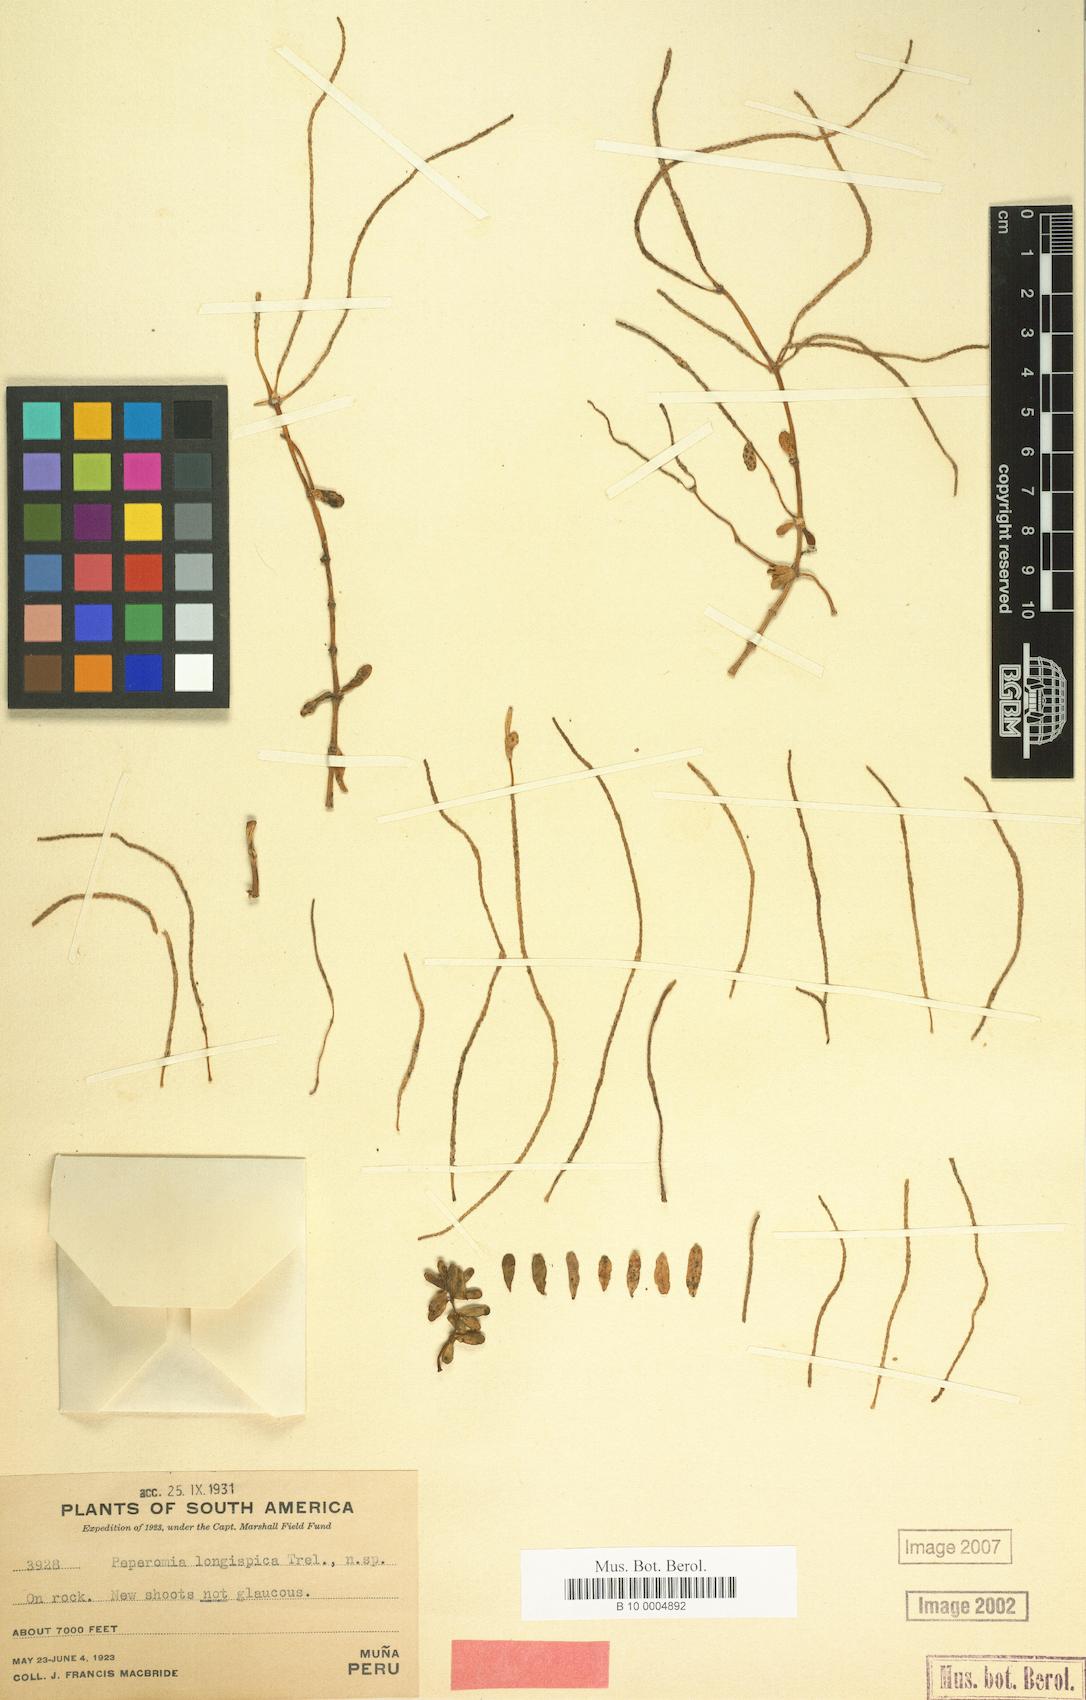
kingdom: Plantae
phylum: Tracheophyta
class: Magnoliopsida
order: Piperales
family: Piperaceae
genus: Peperomia
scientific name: Peperomia galioides
